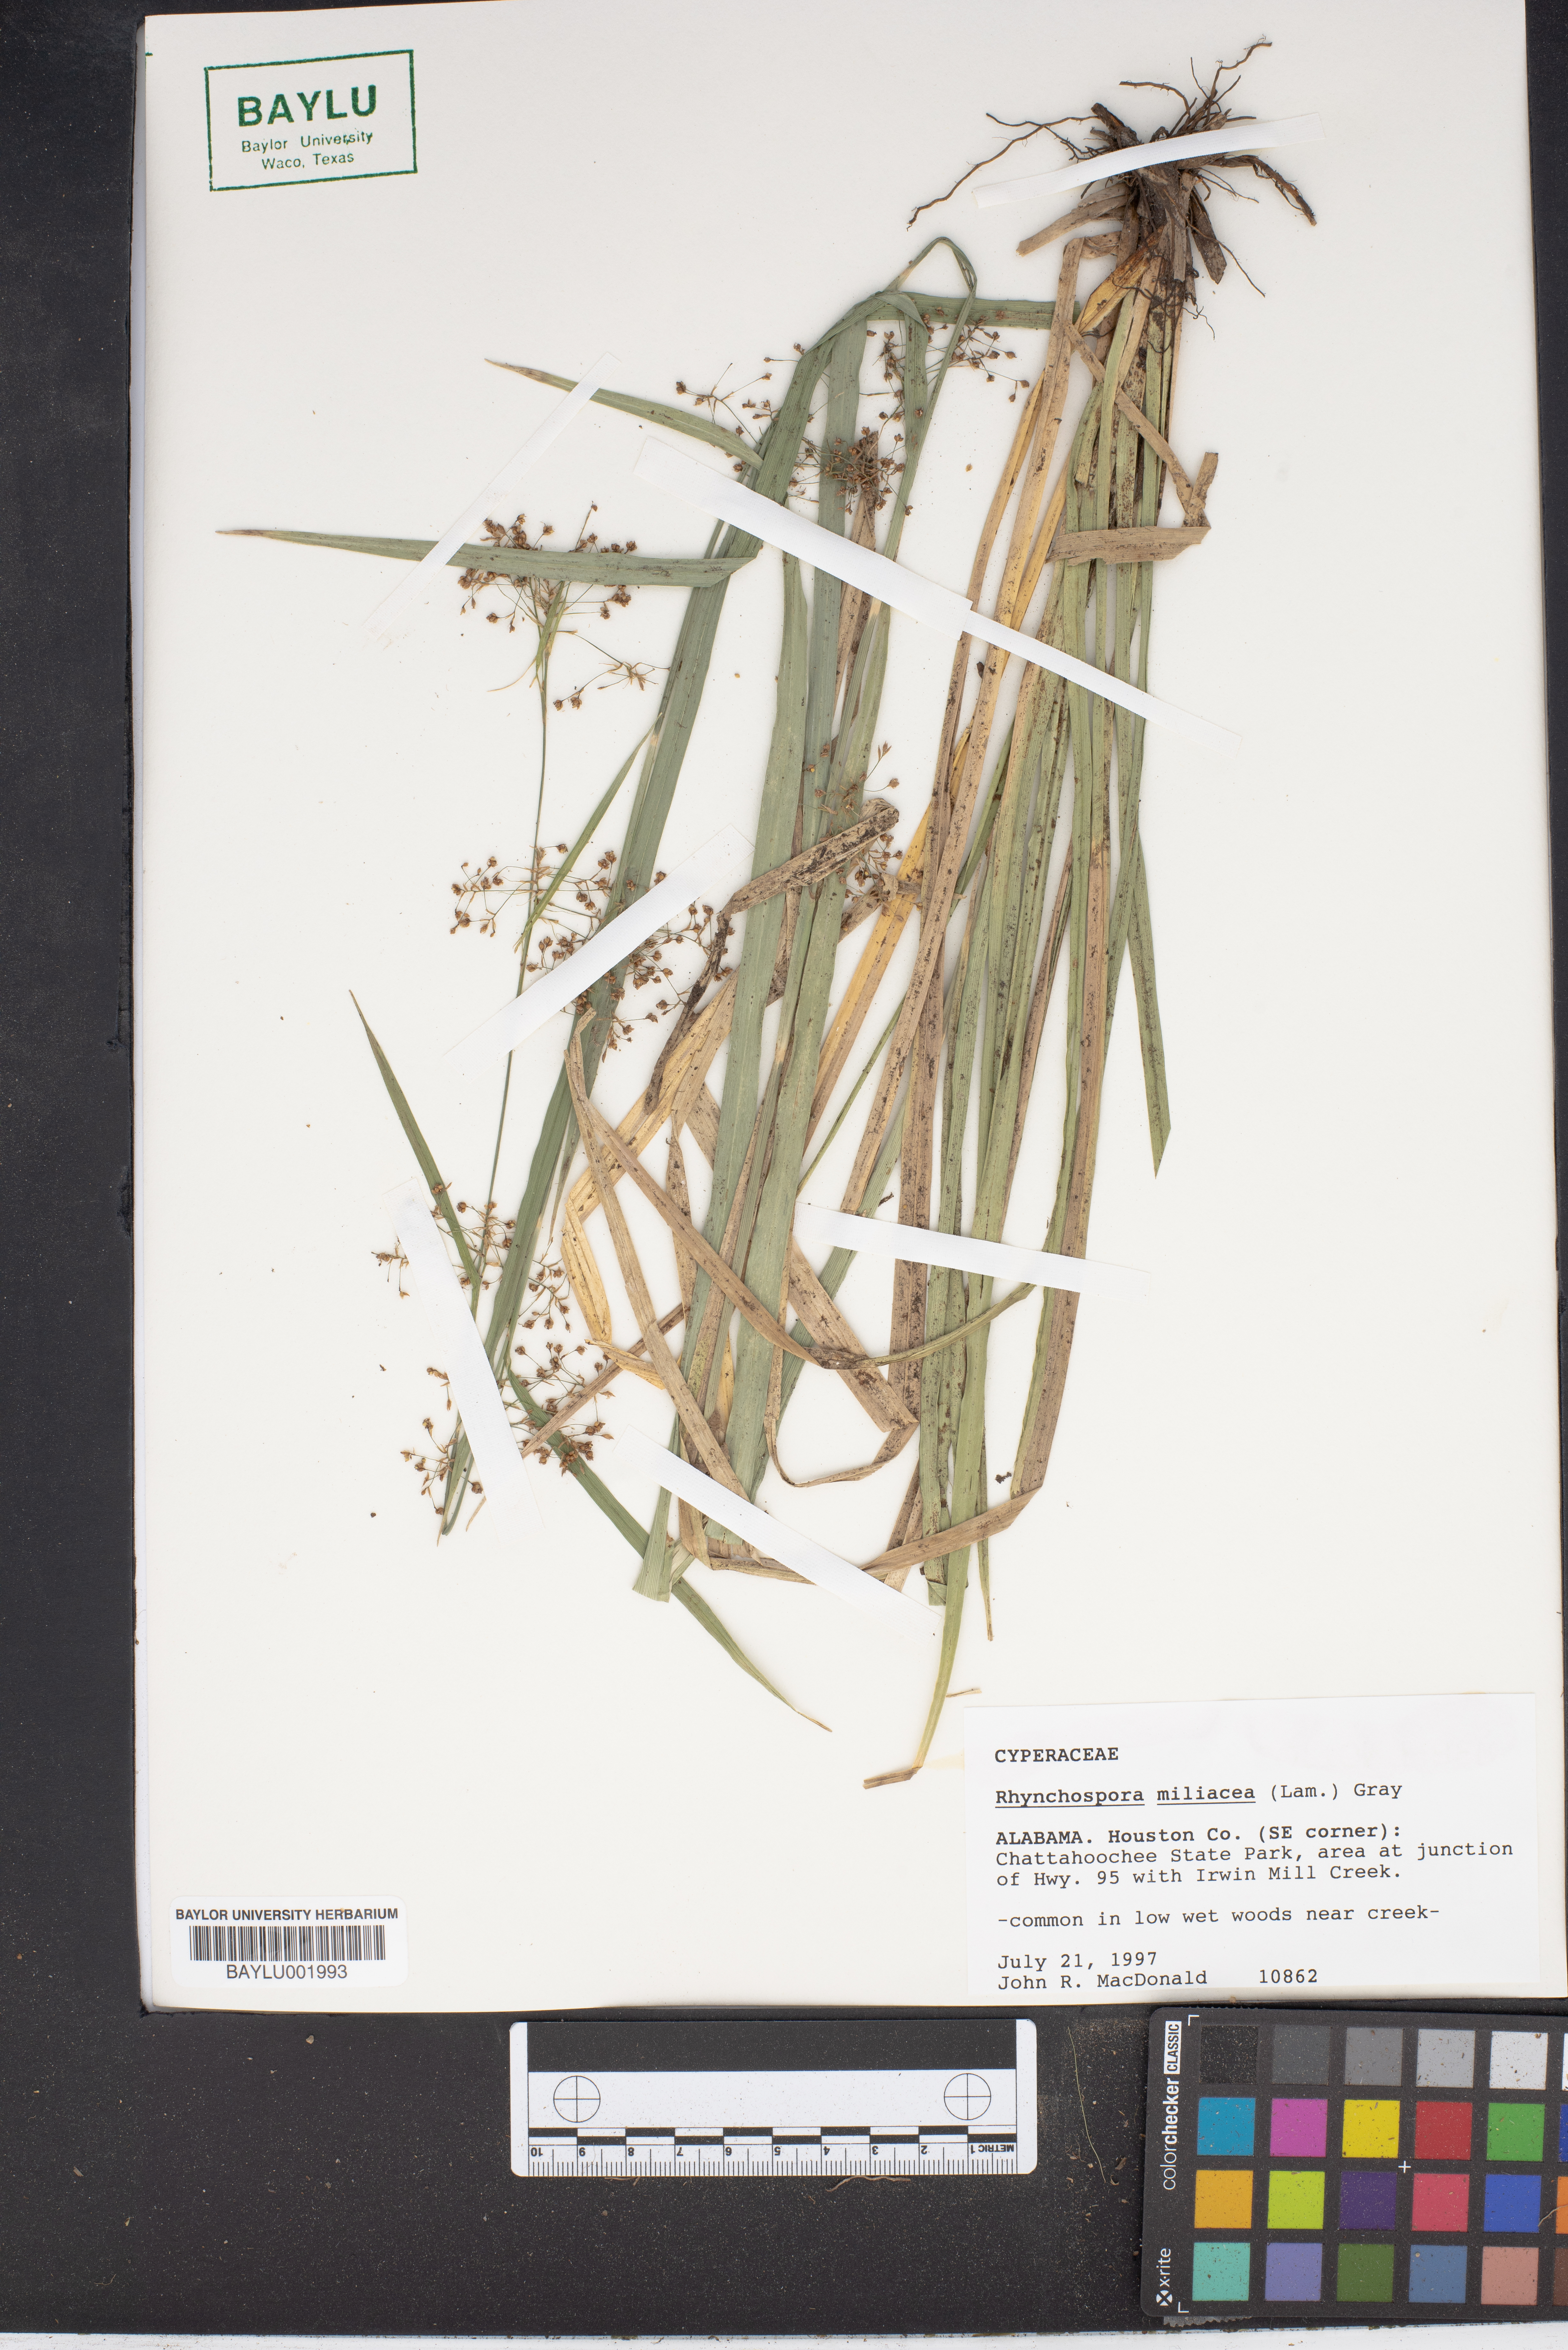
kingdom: Plantae
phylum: Tracheophyta
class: Liliopsida
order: Poales
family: Cyperaceae
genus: Rhynchospora
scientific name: Rhynchospora miliacea
